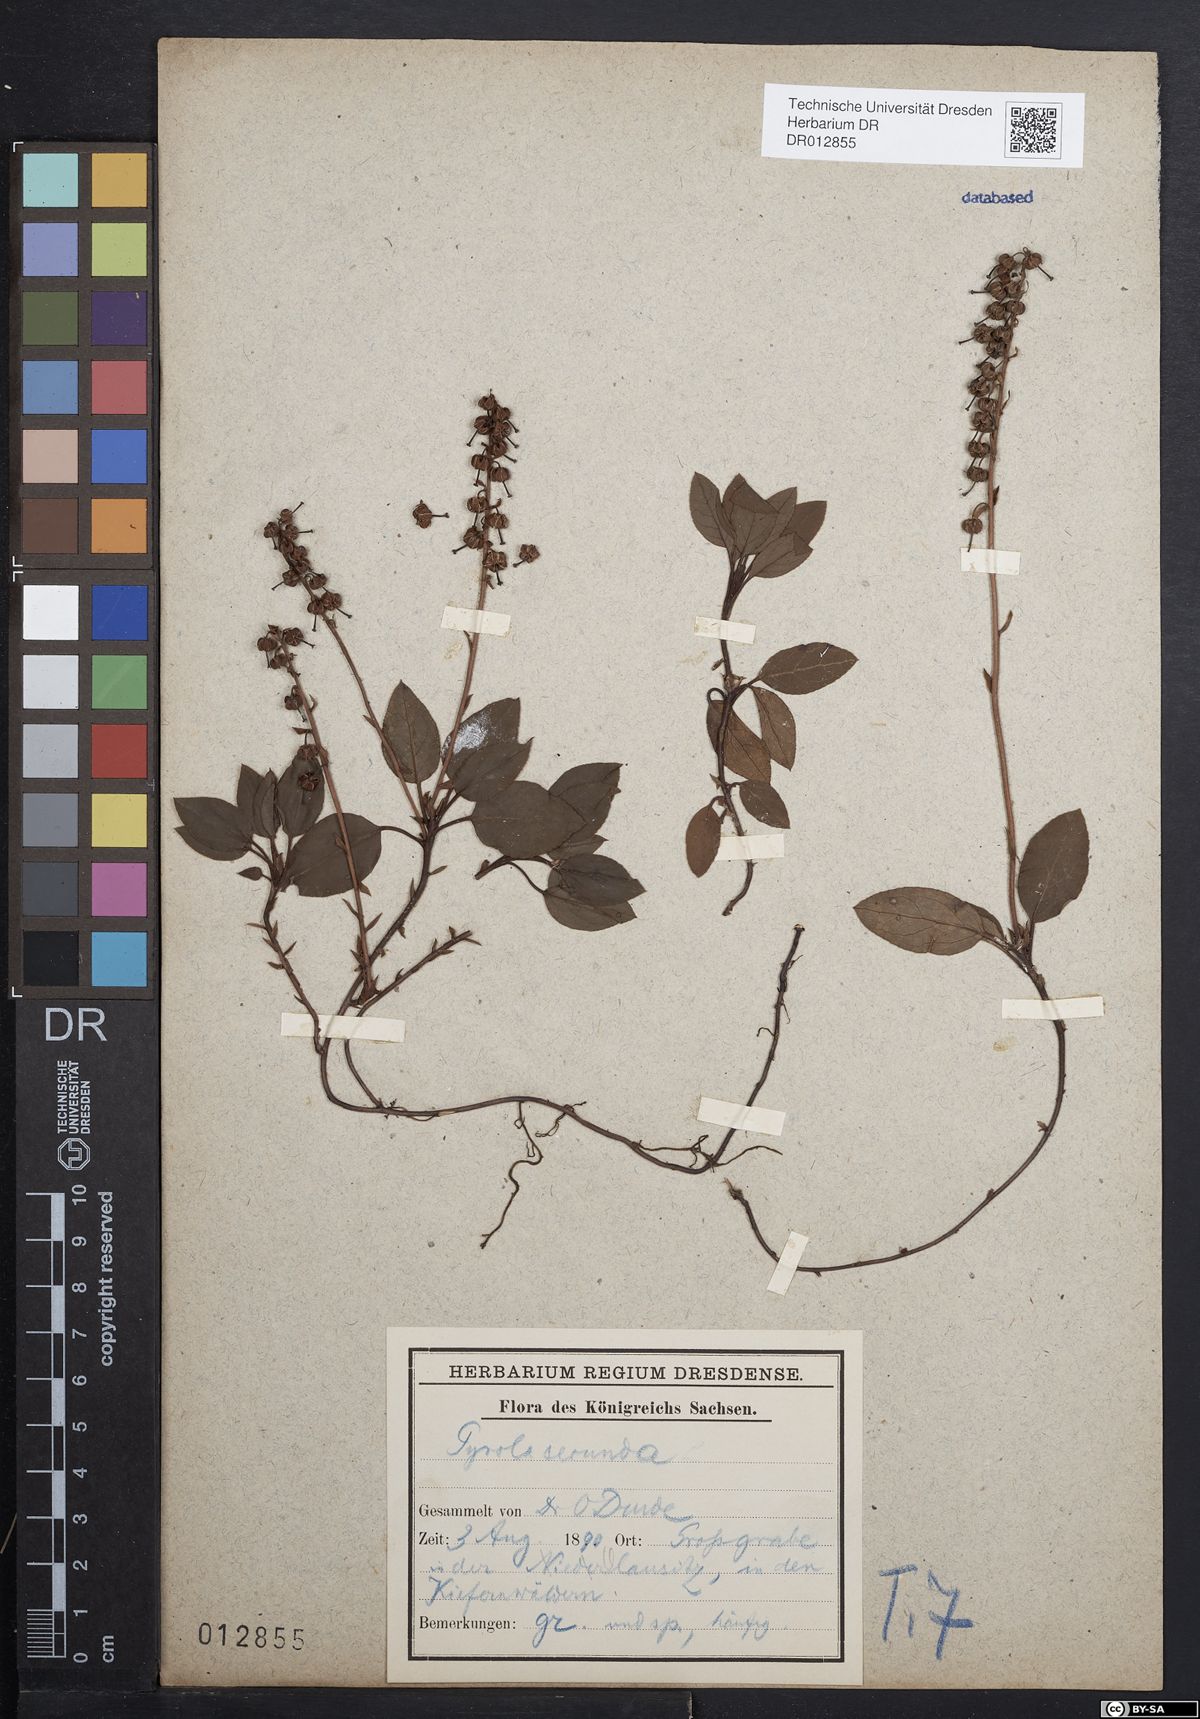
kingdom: Plantae
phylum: Tracheophyta
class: Magnoliopsida
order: Ericales
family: Ericaceae
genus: Orthilia
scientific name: Orthilia secunda
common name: One-sided orthilia
